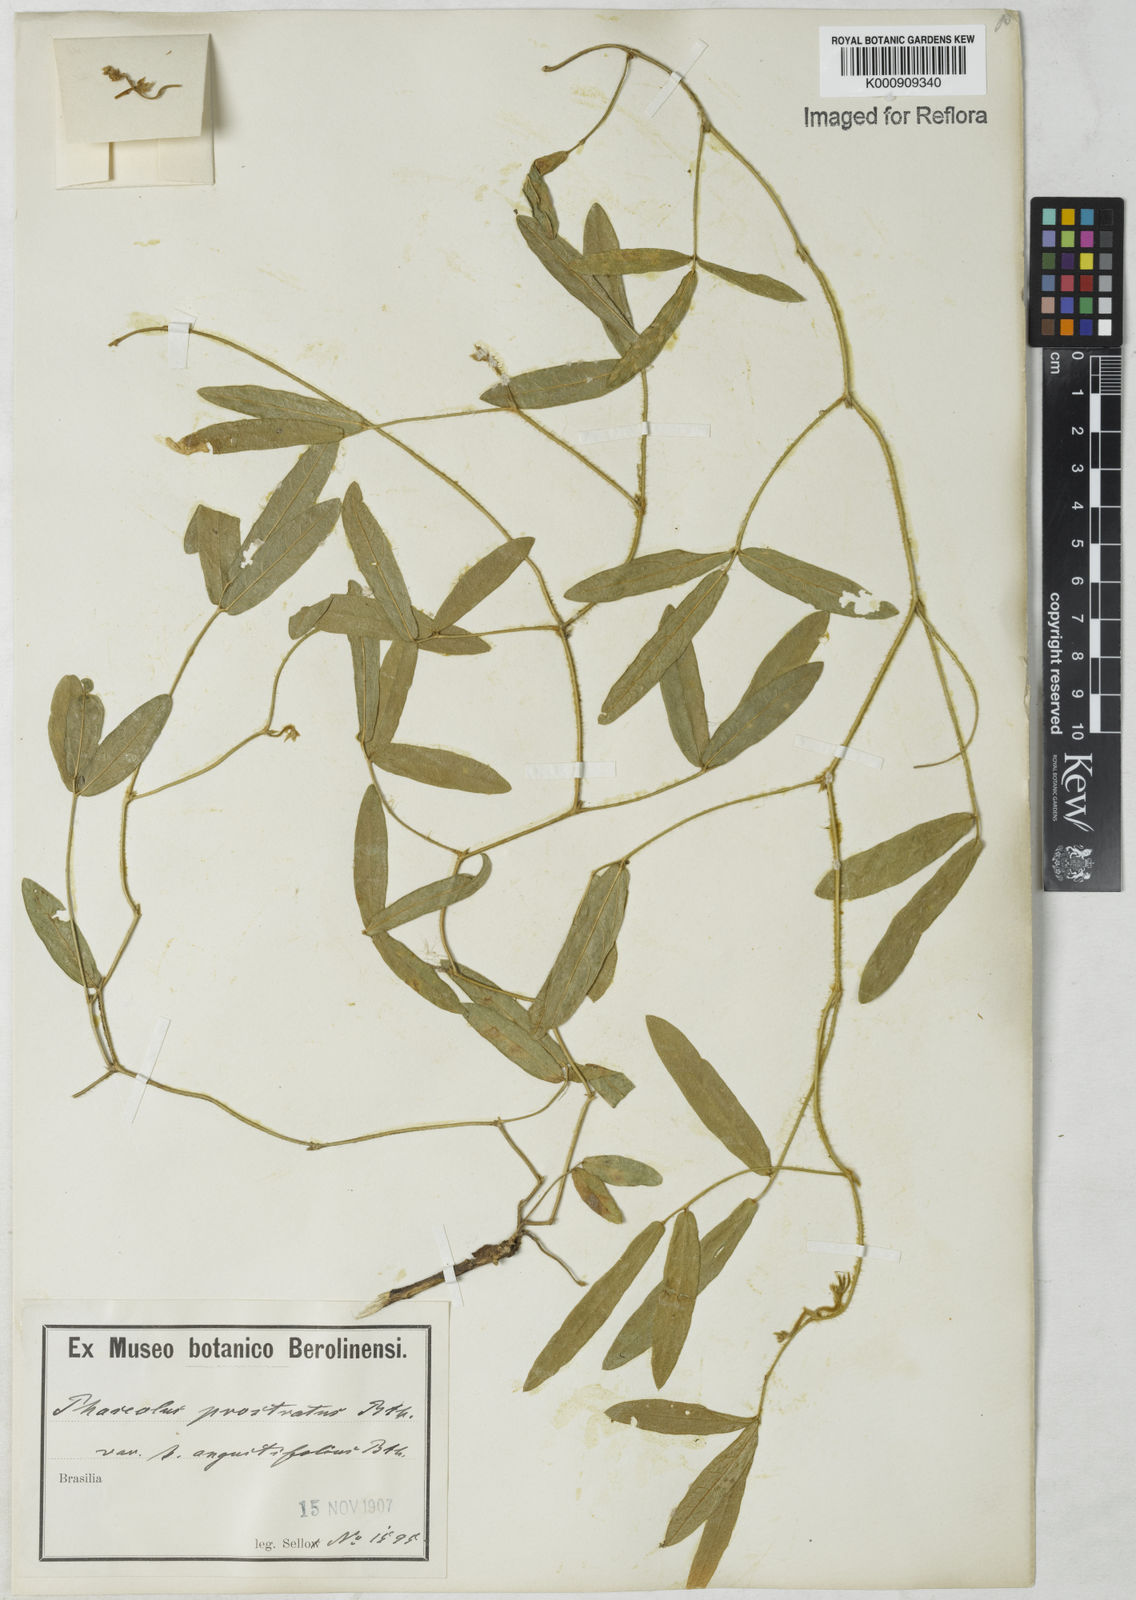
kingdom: Plantae
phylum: Tracheophyta
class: Magnoliopsida
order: Fabales
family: Fabaceae
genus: Macroptilium
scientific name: Macroptilium prostratum
